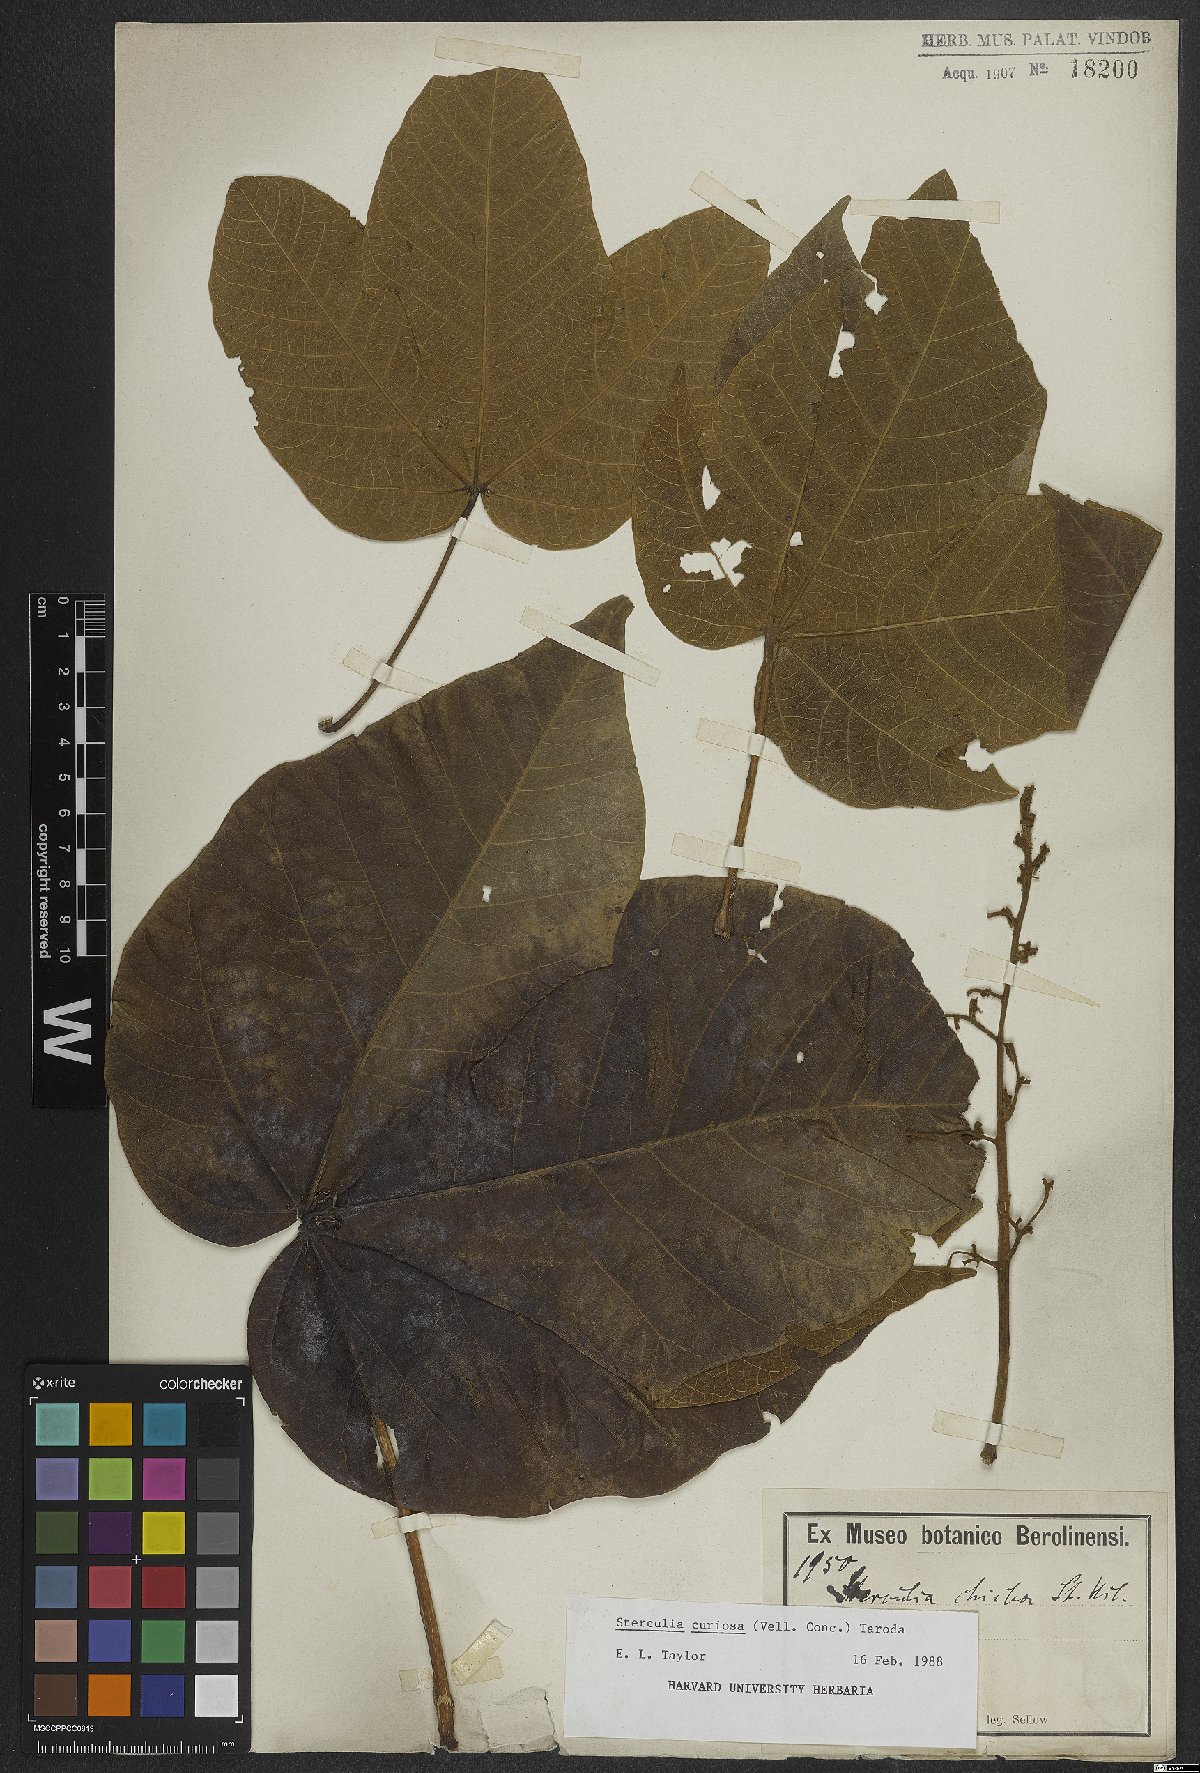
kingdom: Plantae
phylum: Tracheophyta
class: Magnoliopsida
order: Malvales
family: Malvaceae
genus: Sterculia
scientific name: Sterculia curiosa
